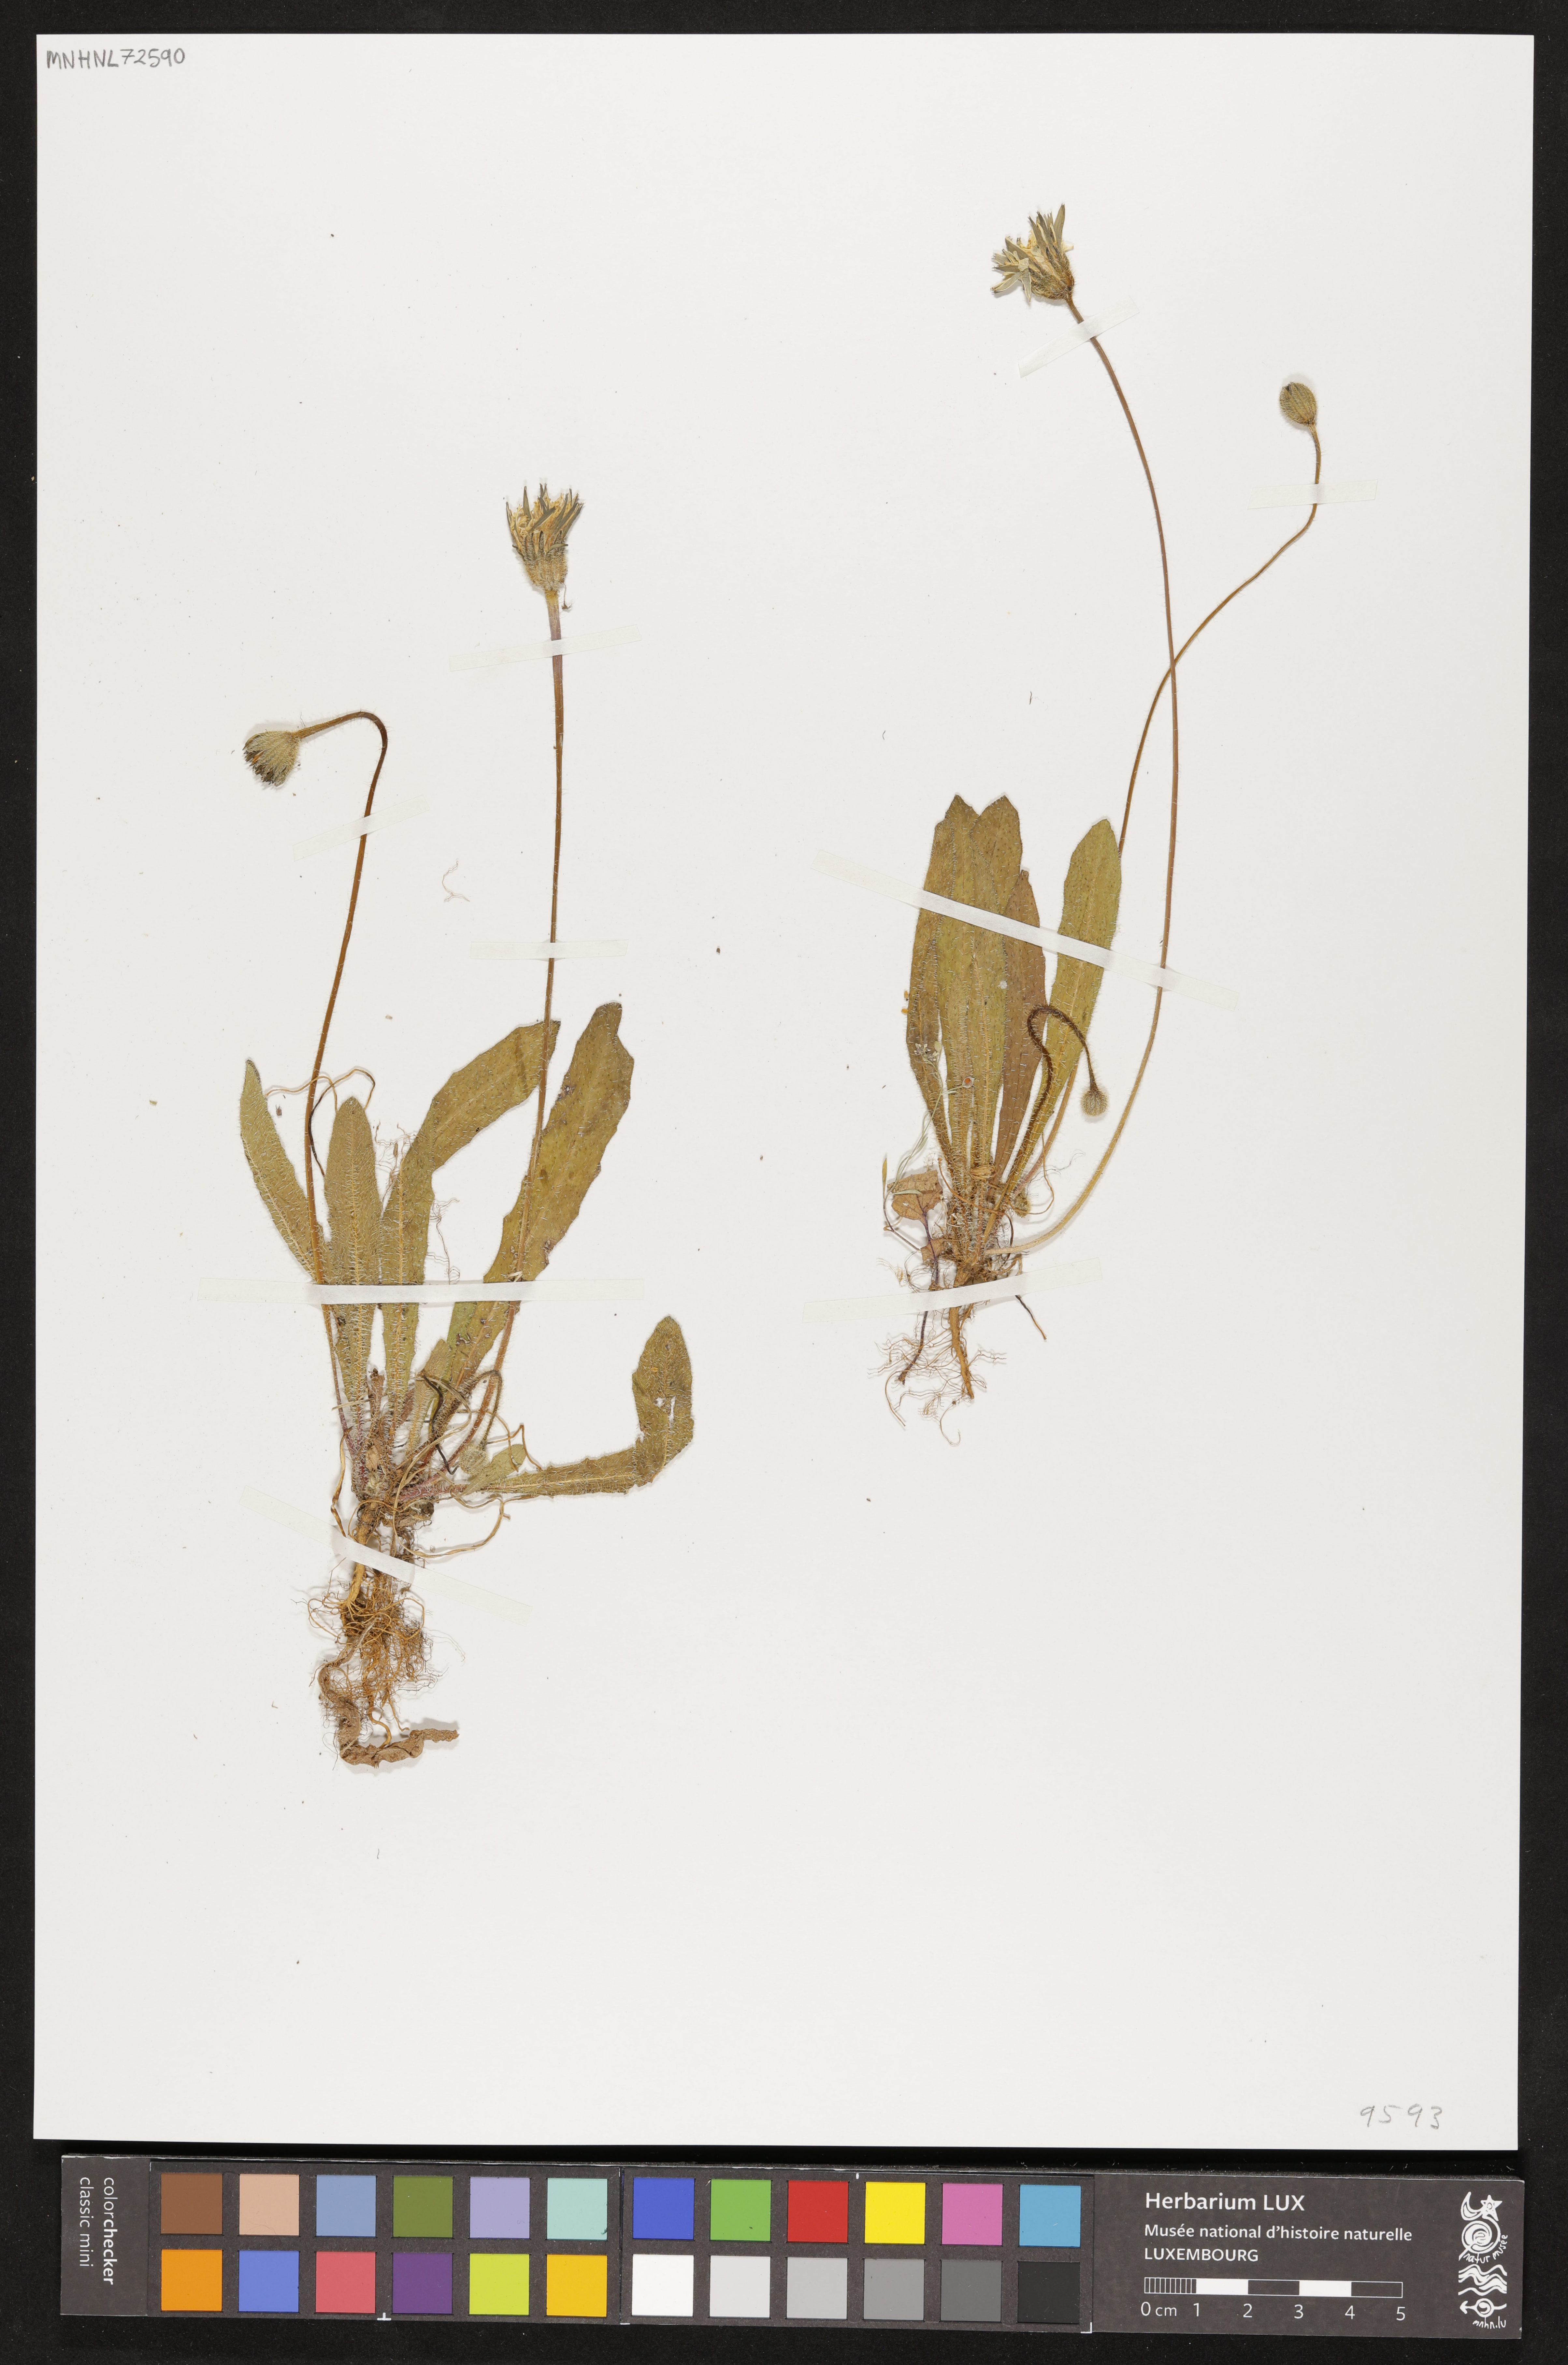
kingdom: Plantae
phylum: Tracheophyta
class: Magnoliopsida
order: Asterales
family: Asteraceae
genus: Hypochaeris
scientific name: Hypochaeris
